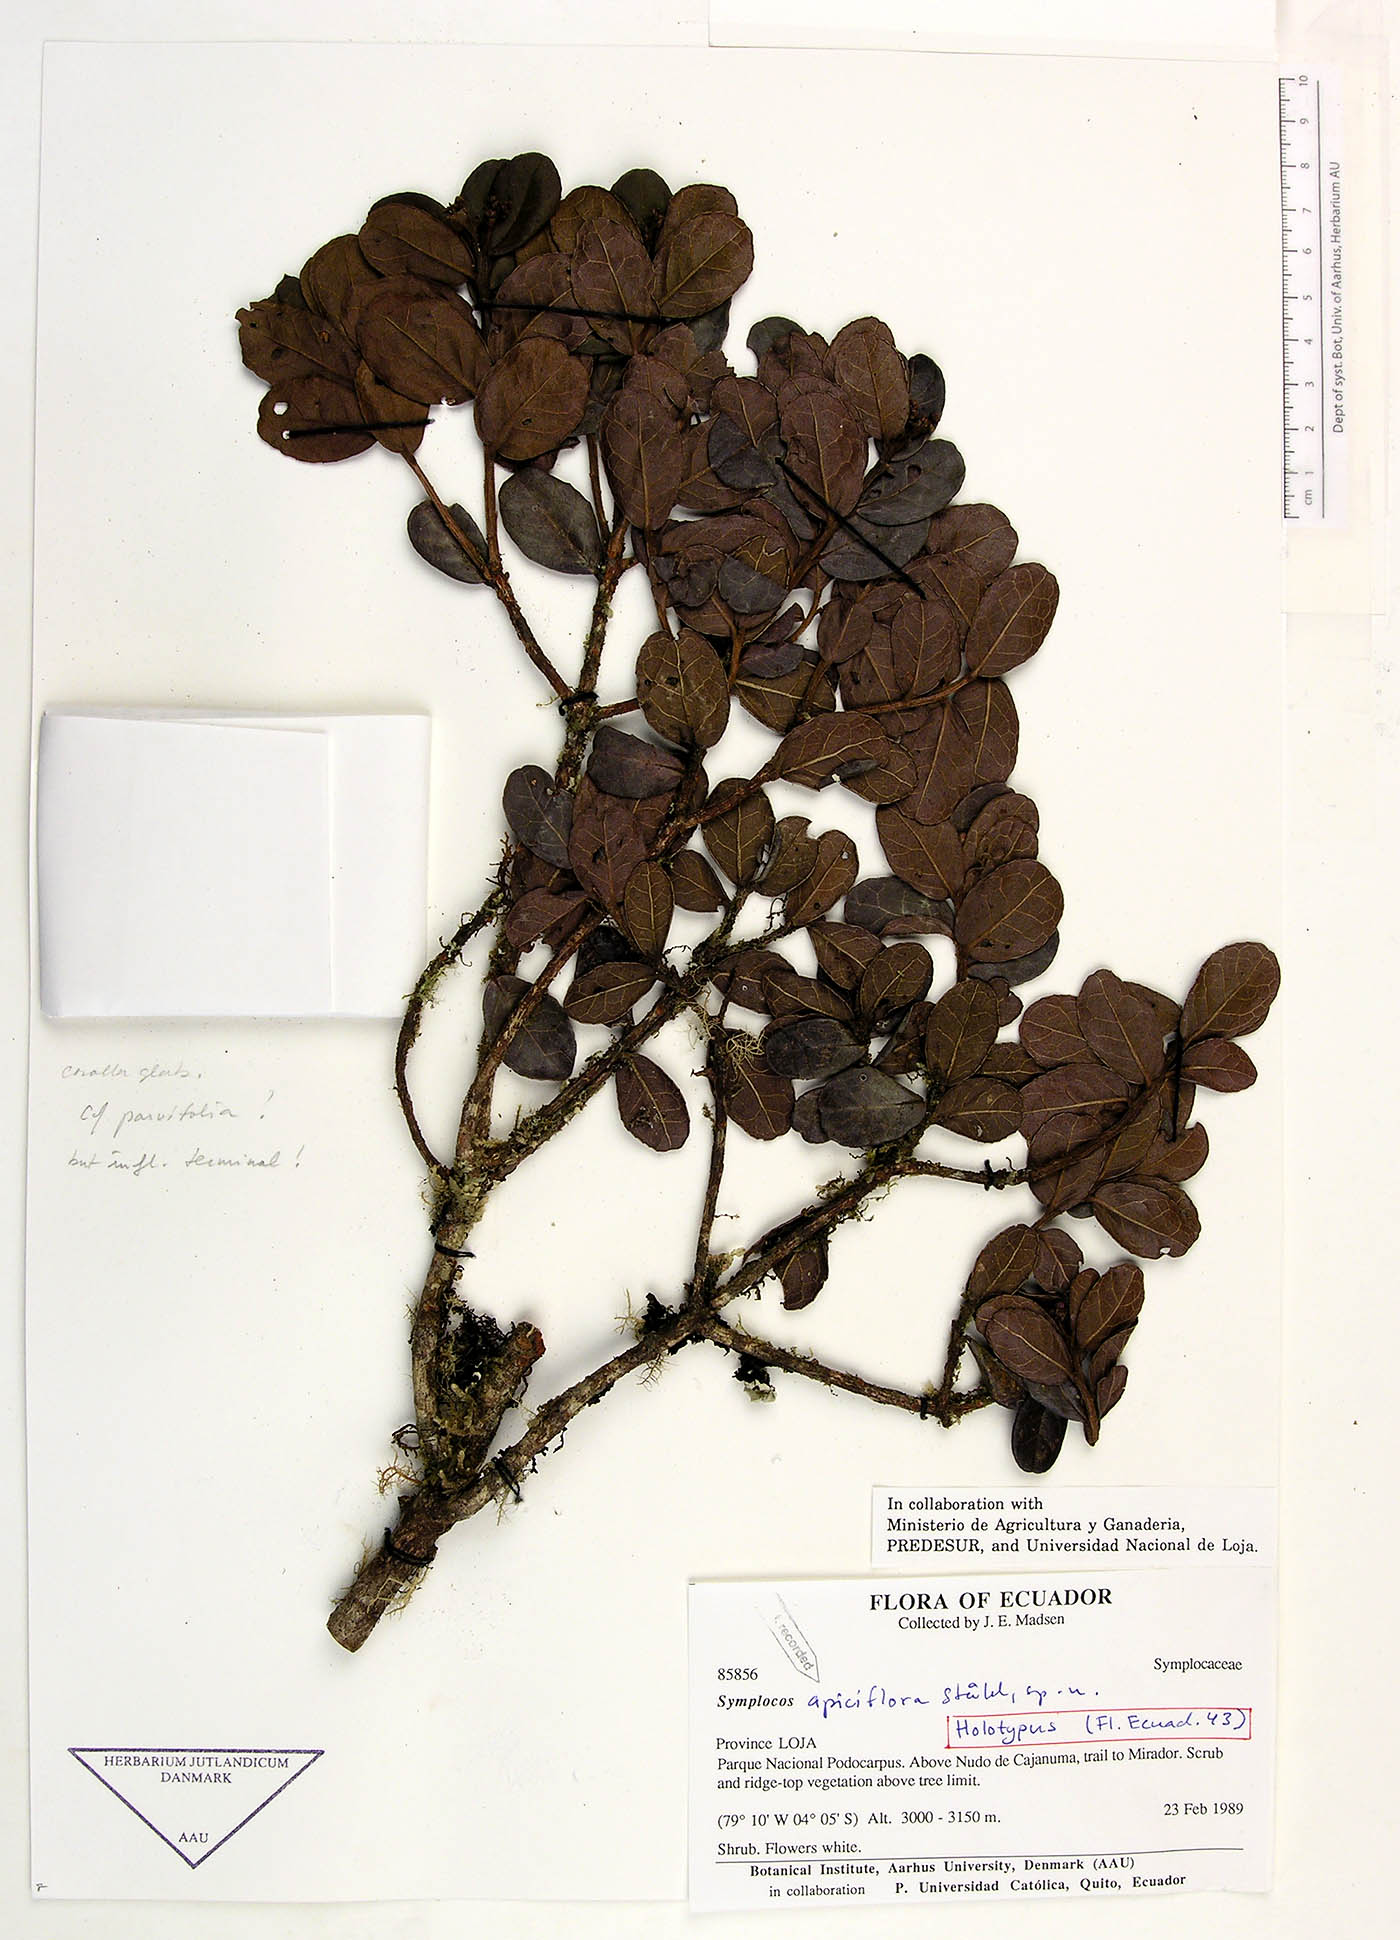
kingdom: Plantae
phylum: Tracheophyta
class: Magnoliopsida
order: Ericales
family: Symplocaceae
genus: Symplocos
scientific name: Symplocos apiciflora
